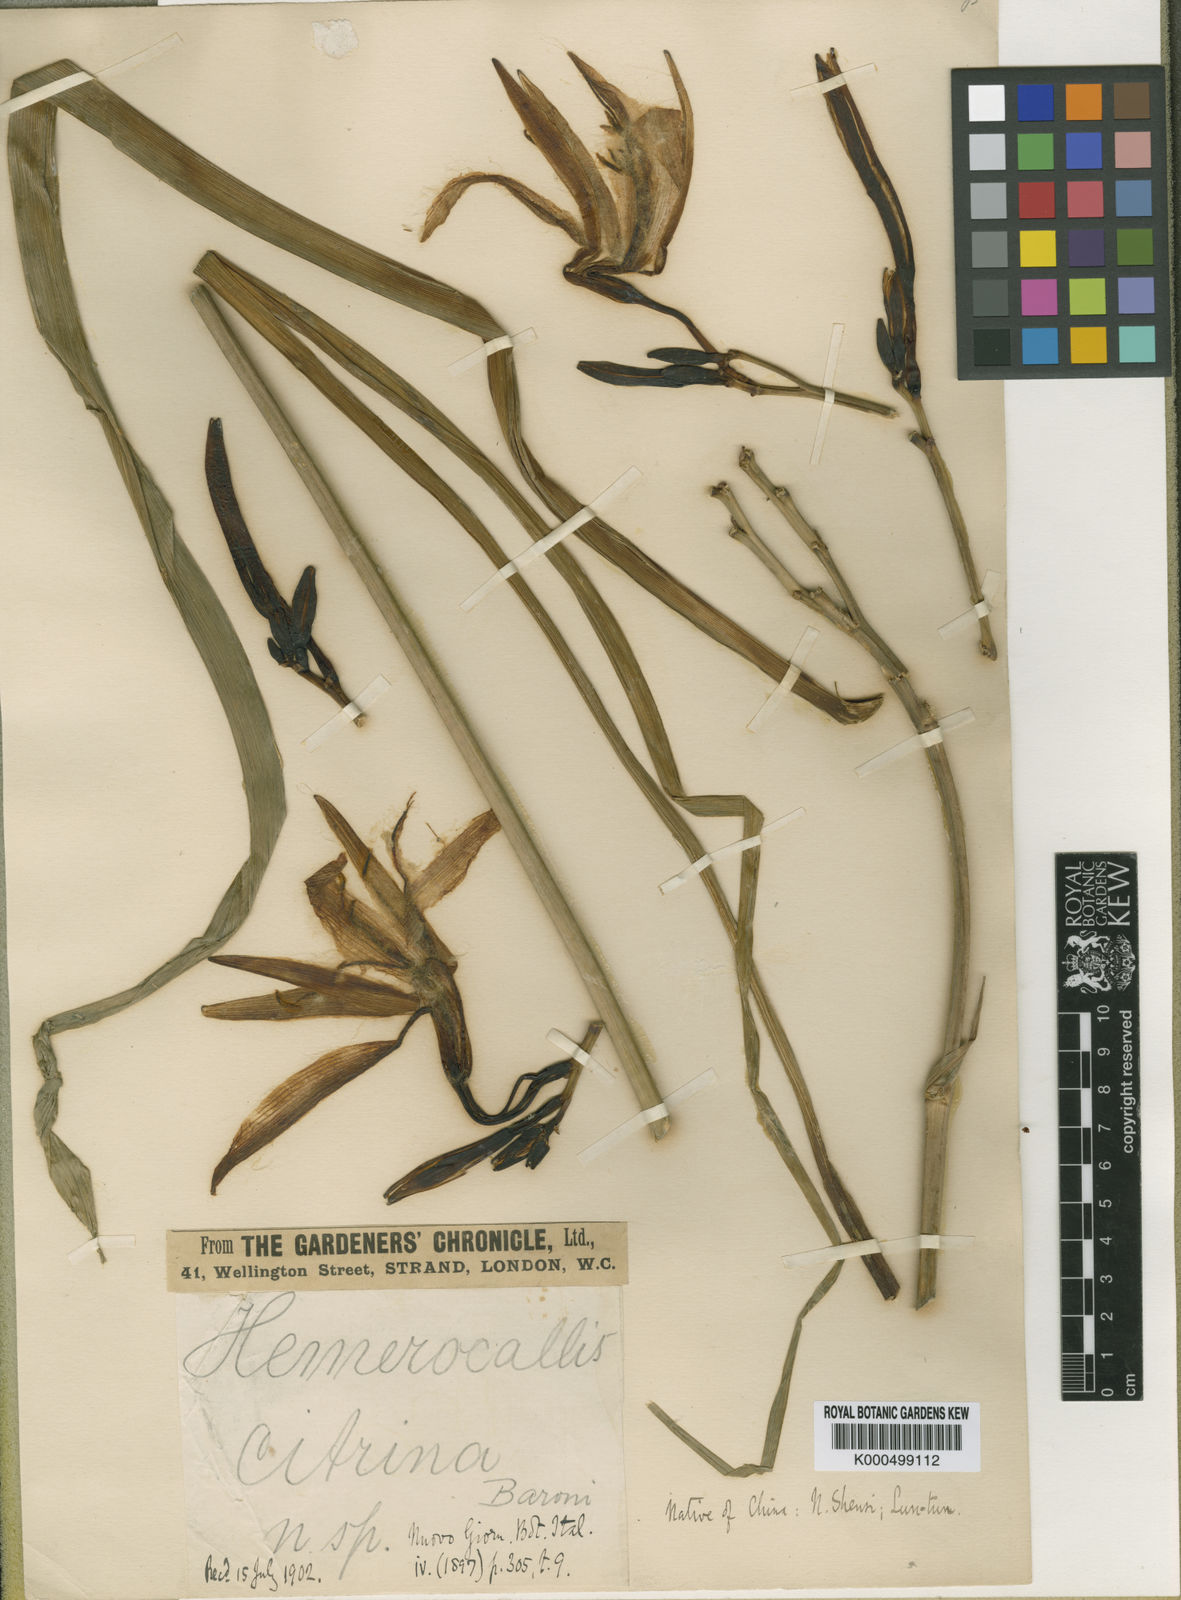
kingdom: Plantae
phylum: Tracheophyta
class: Liliopsida
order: Asparagales
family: Asphodelaceae
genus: Hemerocallis
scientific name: Hemerocallis citrina
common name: Citron day-lily
